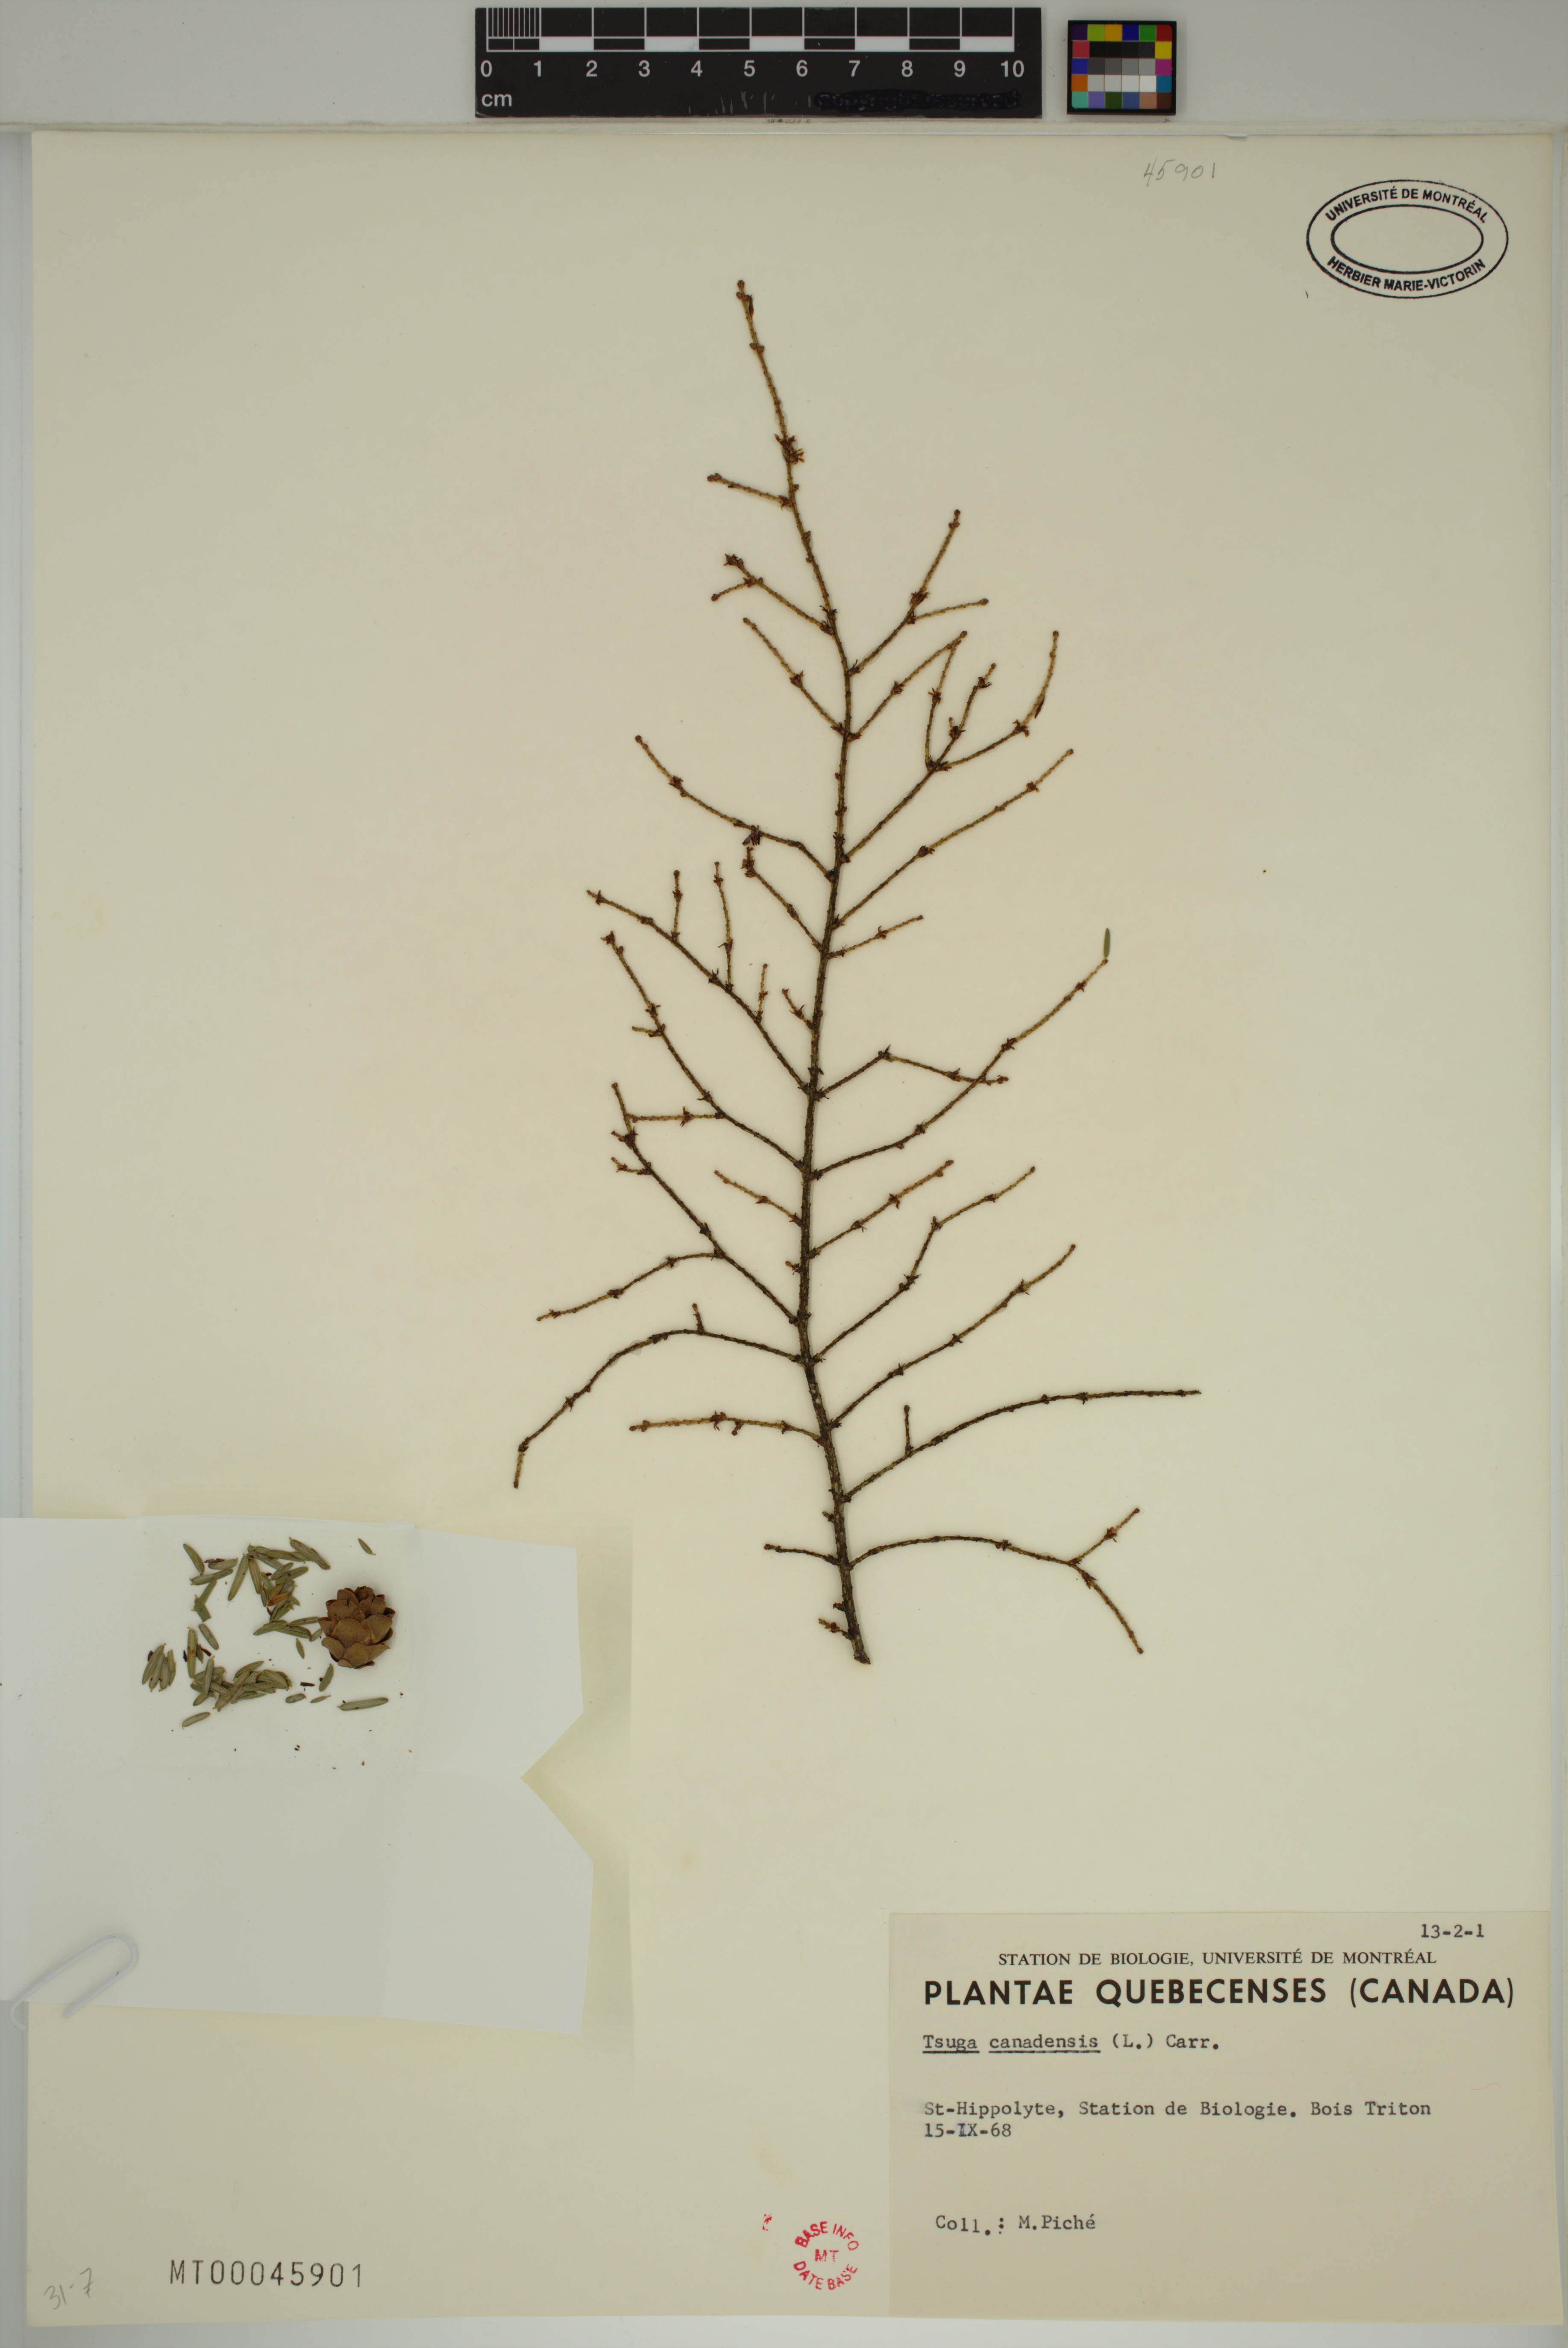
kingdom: Plantae
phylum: Tracheophyta
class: Pinopsida
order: Pinales
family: Pinaceae
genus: Tsuga
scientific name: Tsuga canadensis
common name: Eastern hemlock
